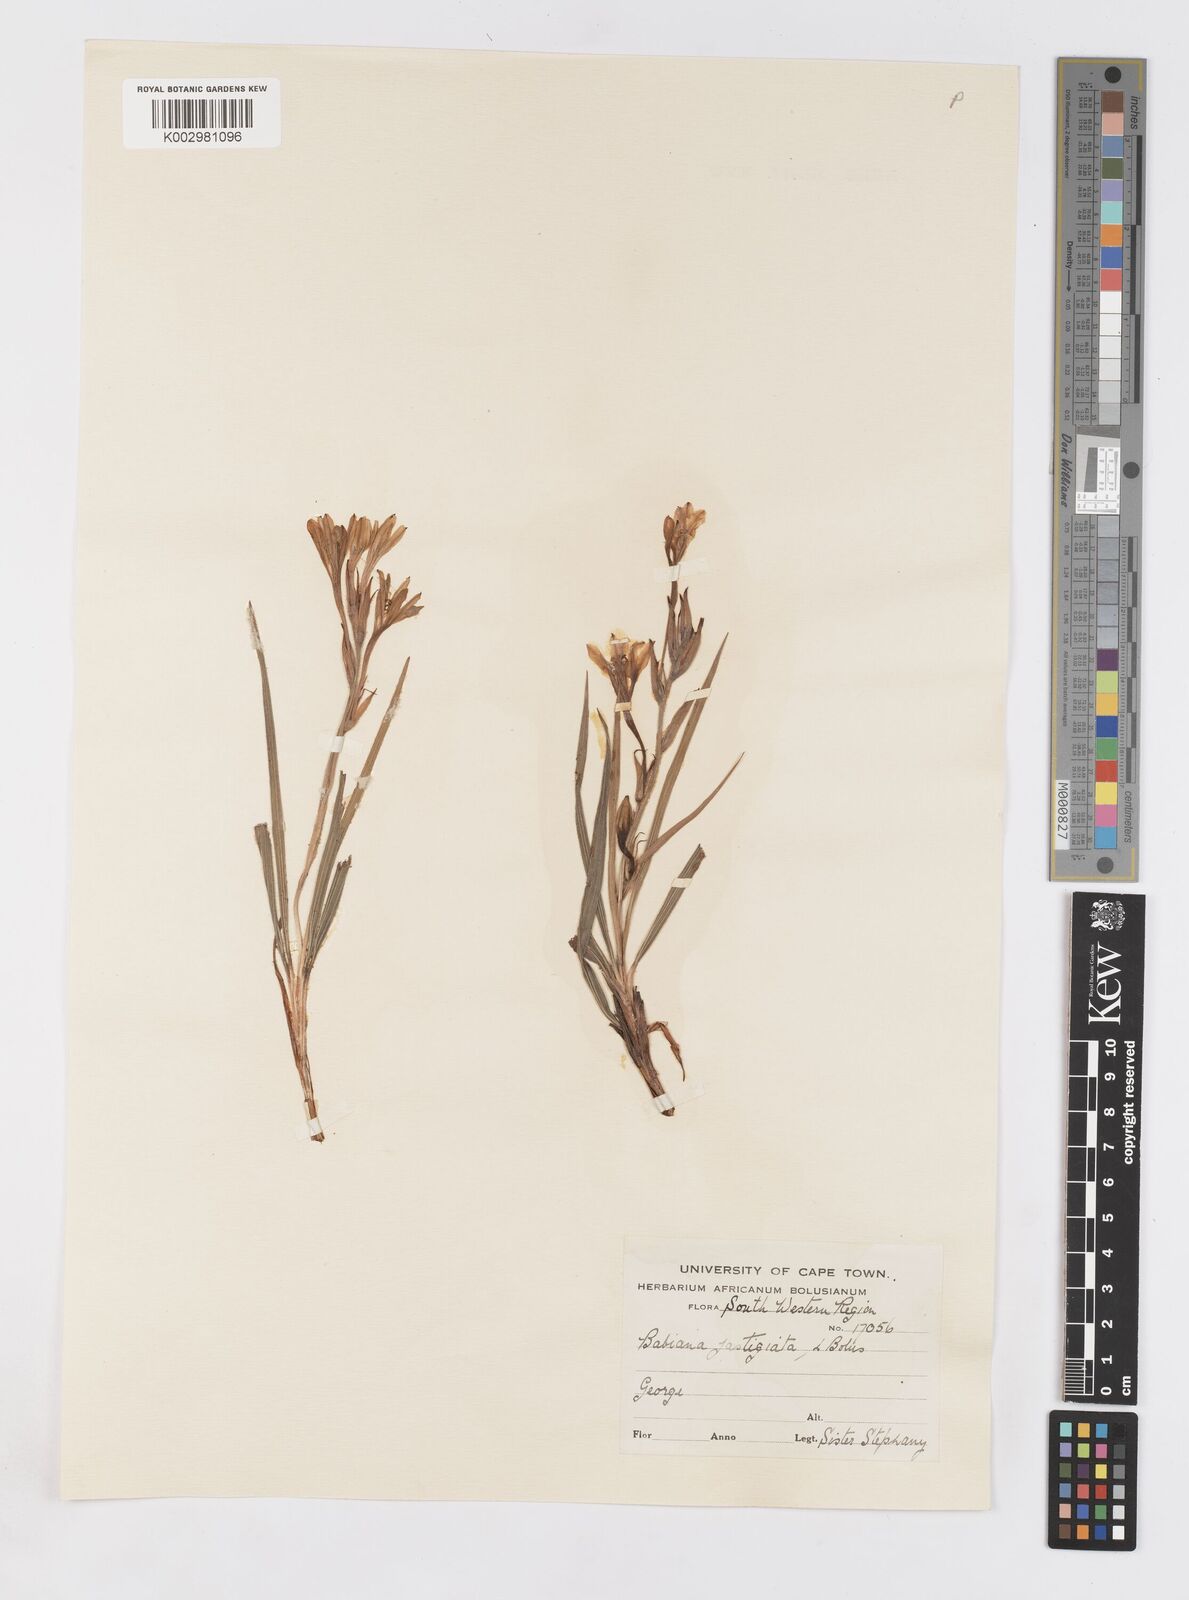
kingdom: Plantae
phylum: Tracheophyta
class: Liliopsida
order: Asparagales
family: Iridaceae
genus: Babiana
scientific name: Babiana ecklonii
